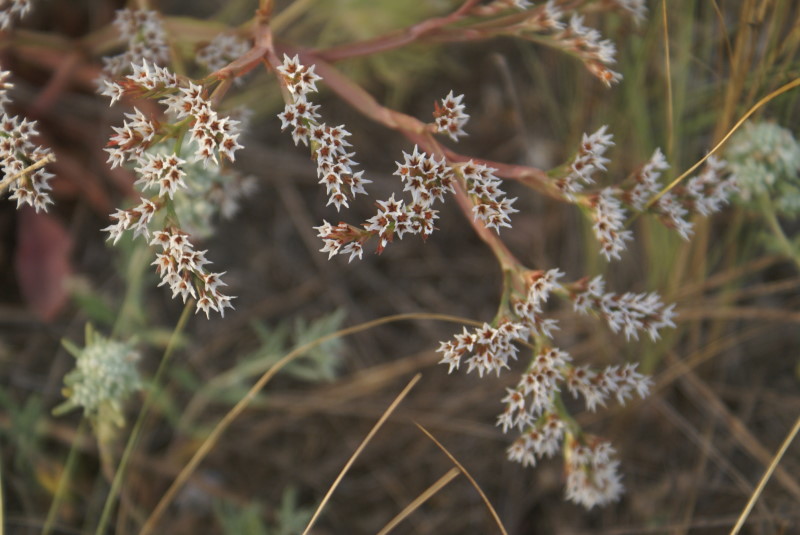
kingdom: Plantae
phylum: Tracheophyta
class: Magnoliopsida
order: Caryophyllales
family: Plumbaginaceae
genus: Goniolimon
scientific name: Goniolimon tauricum
